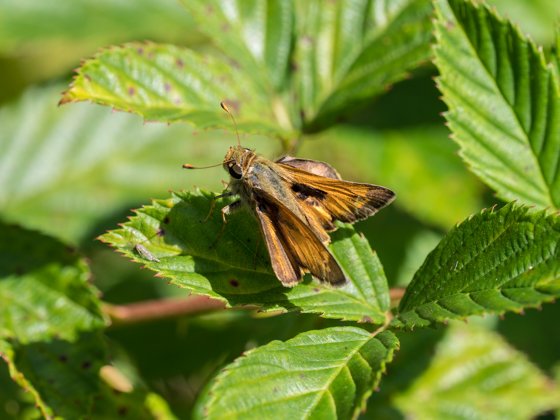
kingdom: Animalia
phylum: Arthropoda
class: Insecta
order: Lepidoptera
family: Hesperiidae
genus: Atalopedes
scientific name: Atalopedes campestris
